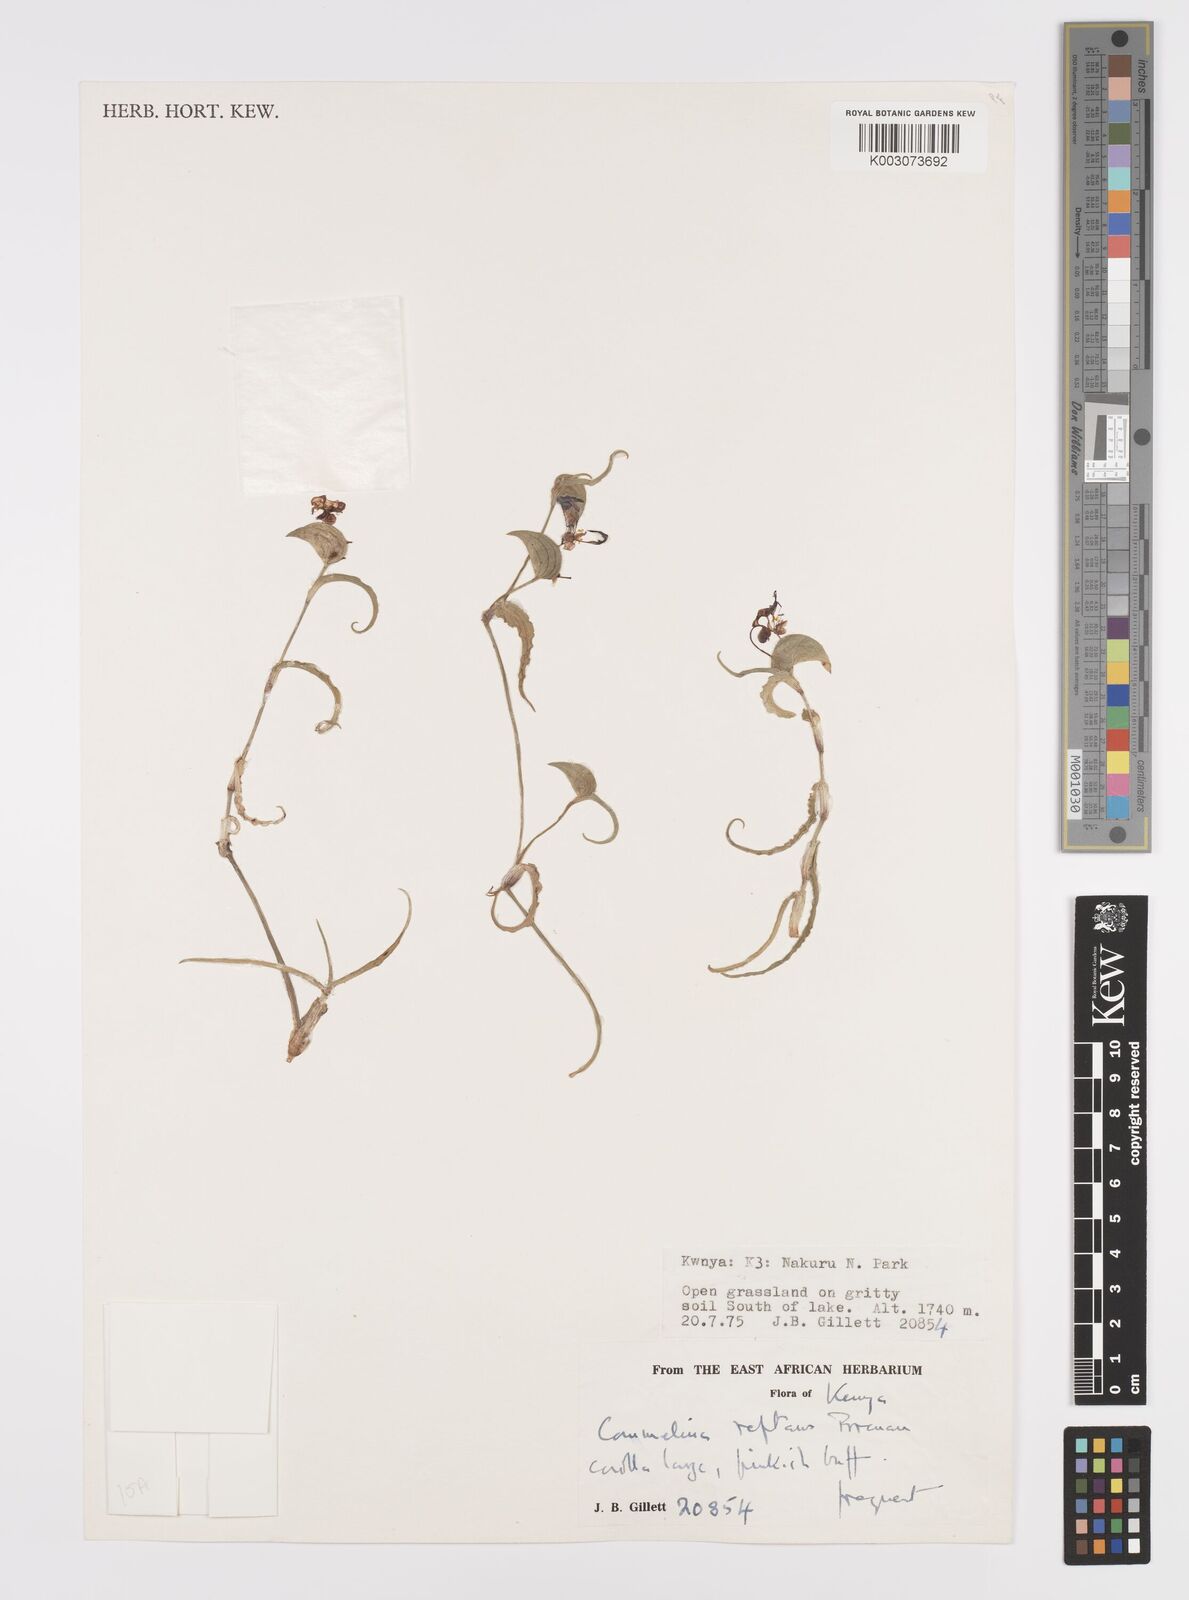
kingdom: Plantae
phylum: Tracheophyta
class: Liliopsida
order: Commelinales
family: Commelinaceae
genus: Commelina
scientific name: Commelina reptans
